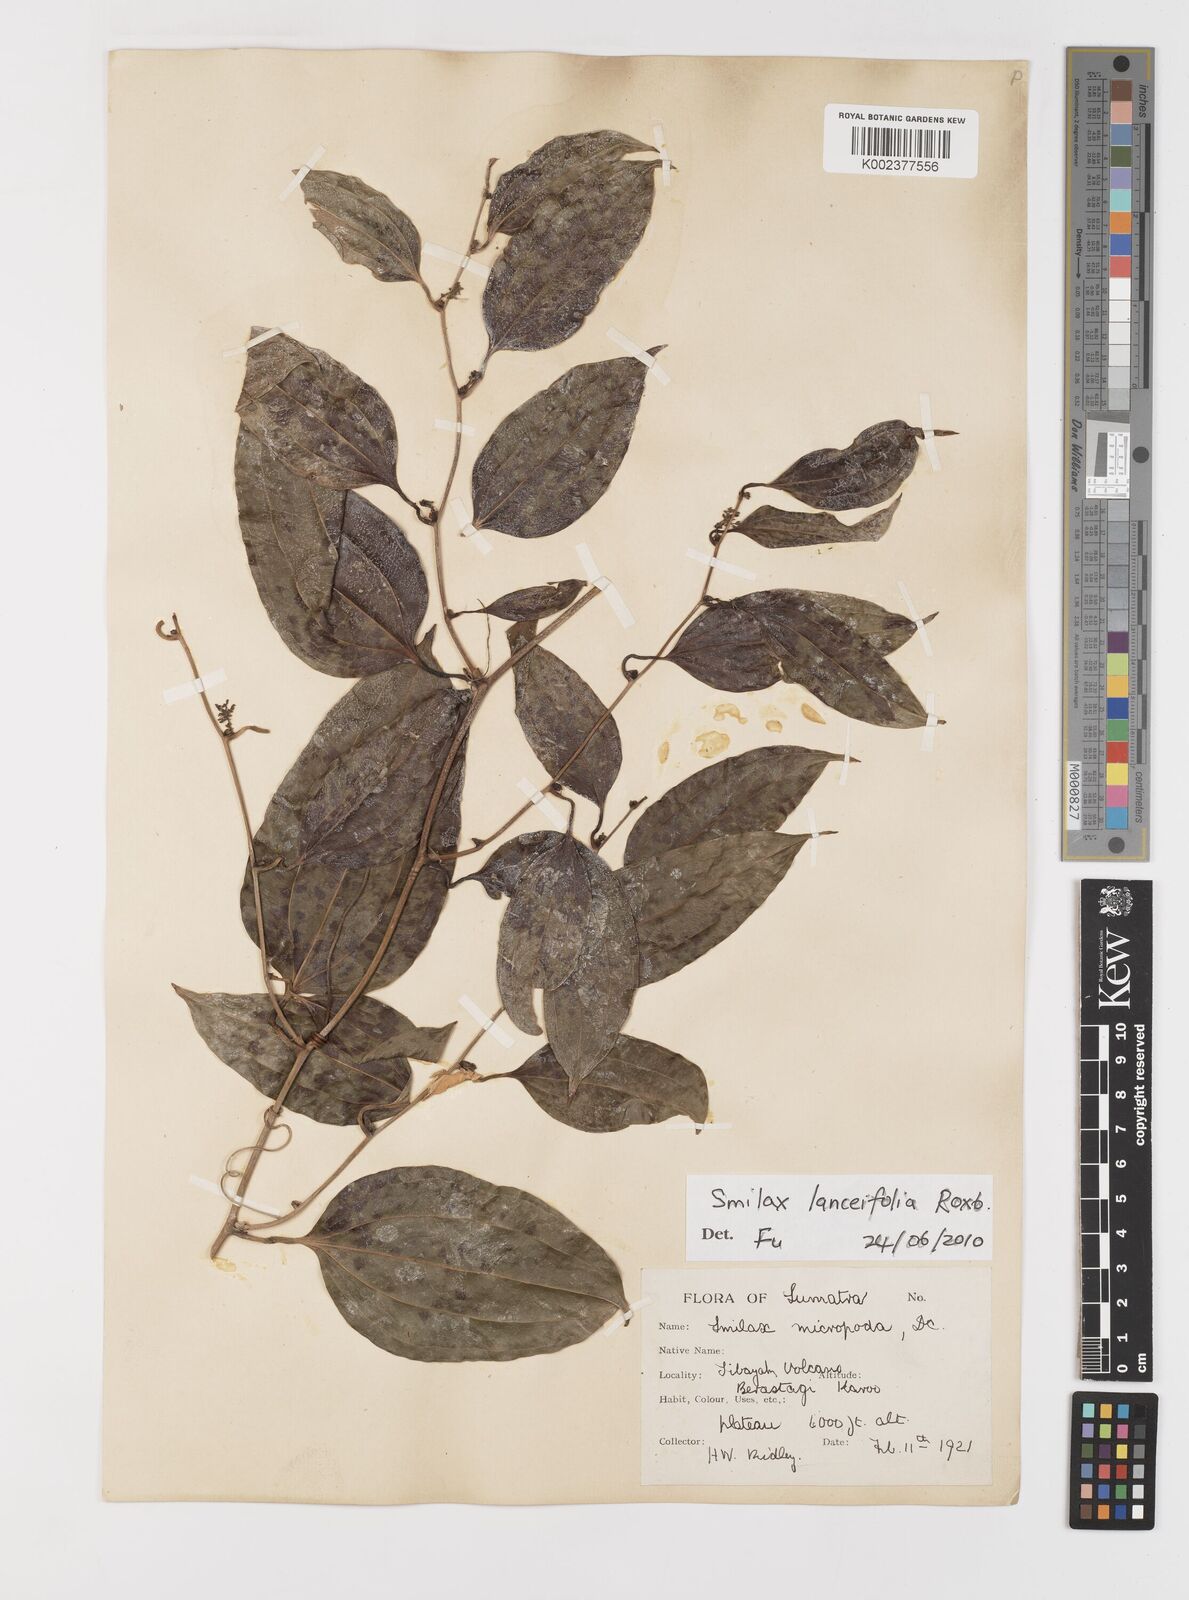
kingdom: Plantae
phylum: Tracheophyta
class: Liliopsida
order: Liliales
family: Smilacaceae
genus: Smilax
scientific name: Smilax lanceifolia
